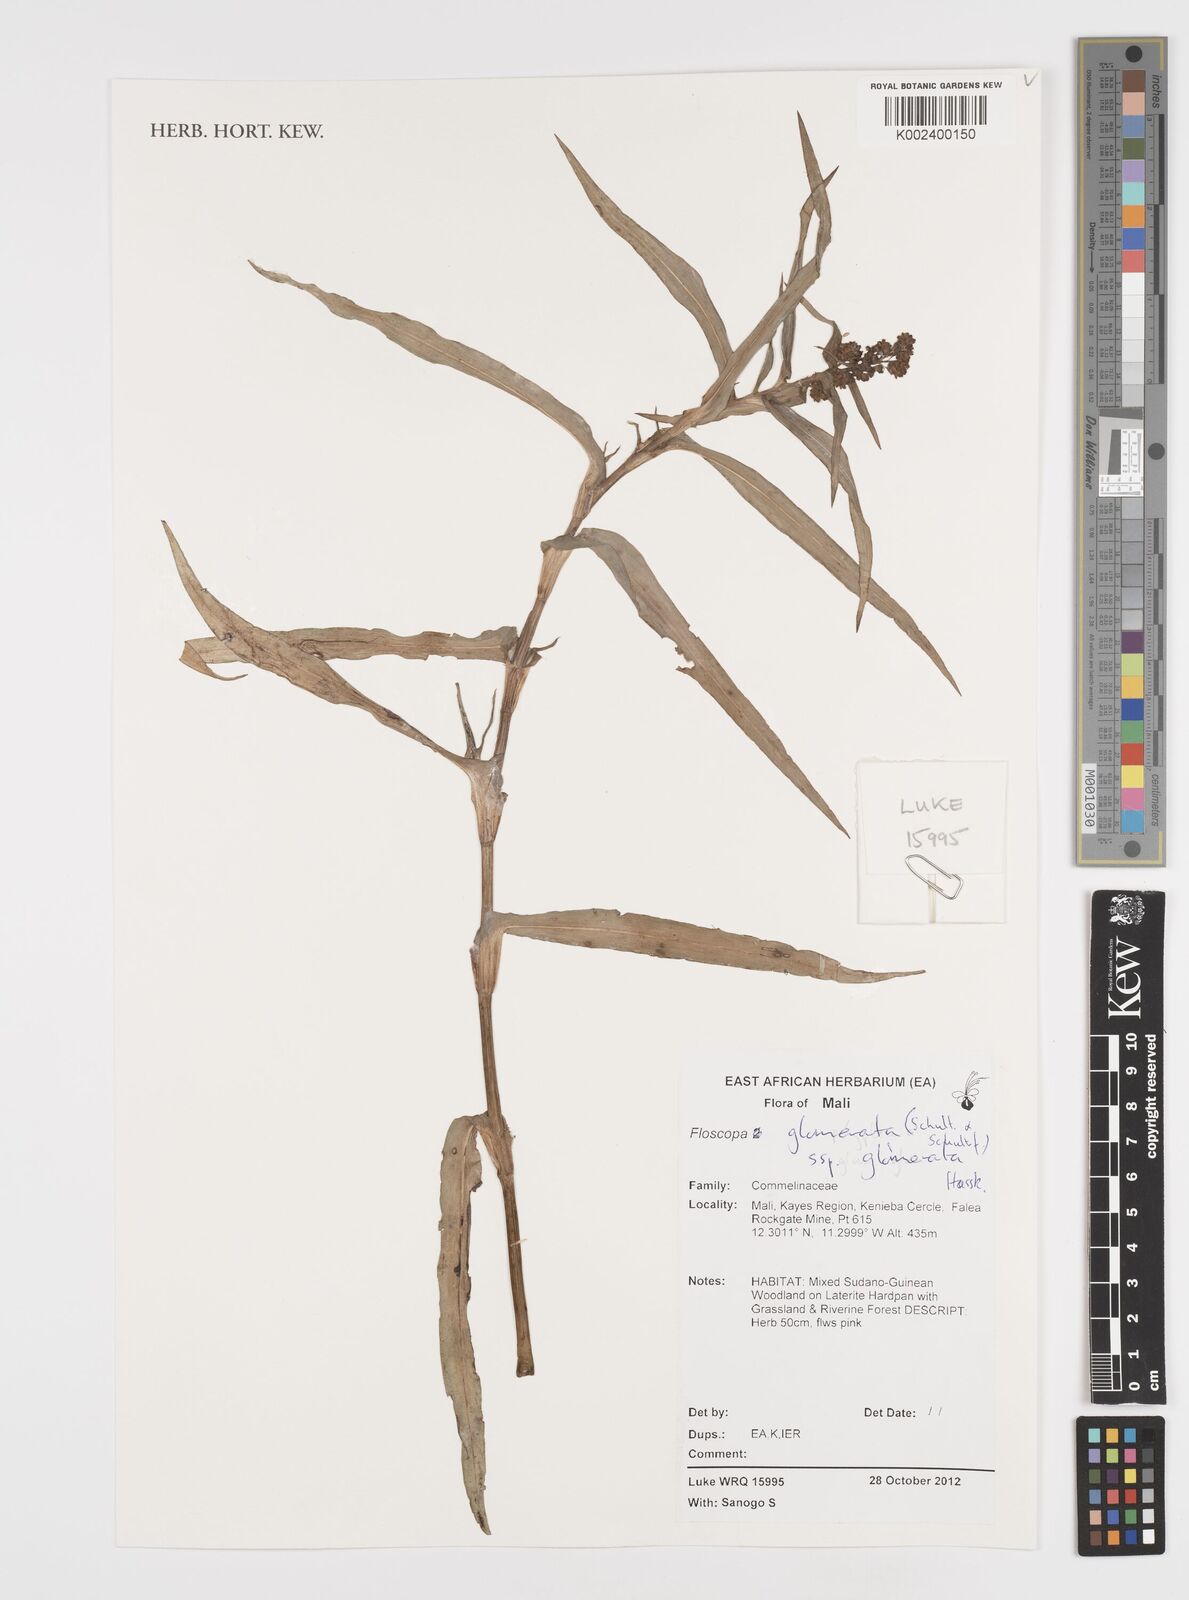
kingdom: Plantae
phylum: Tracheophyta
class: Liliopsida
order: Commelinales
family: Commelinaceae
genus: Floscopa
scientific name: Floscopa glomerata
